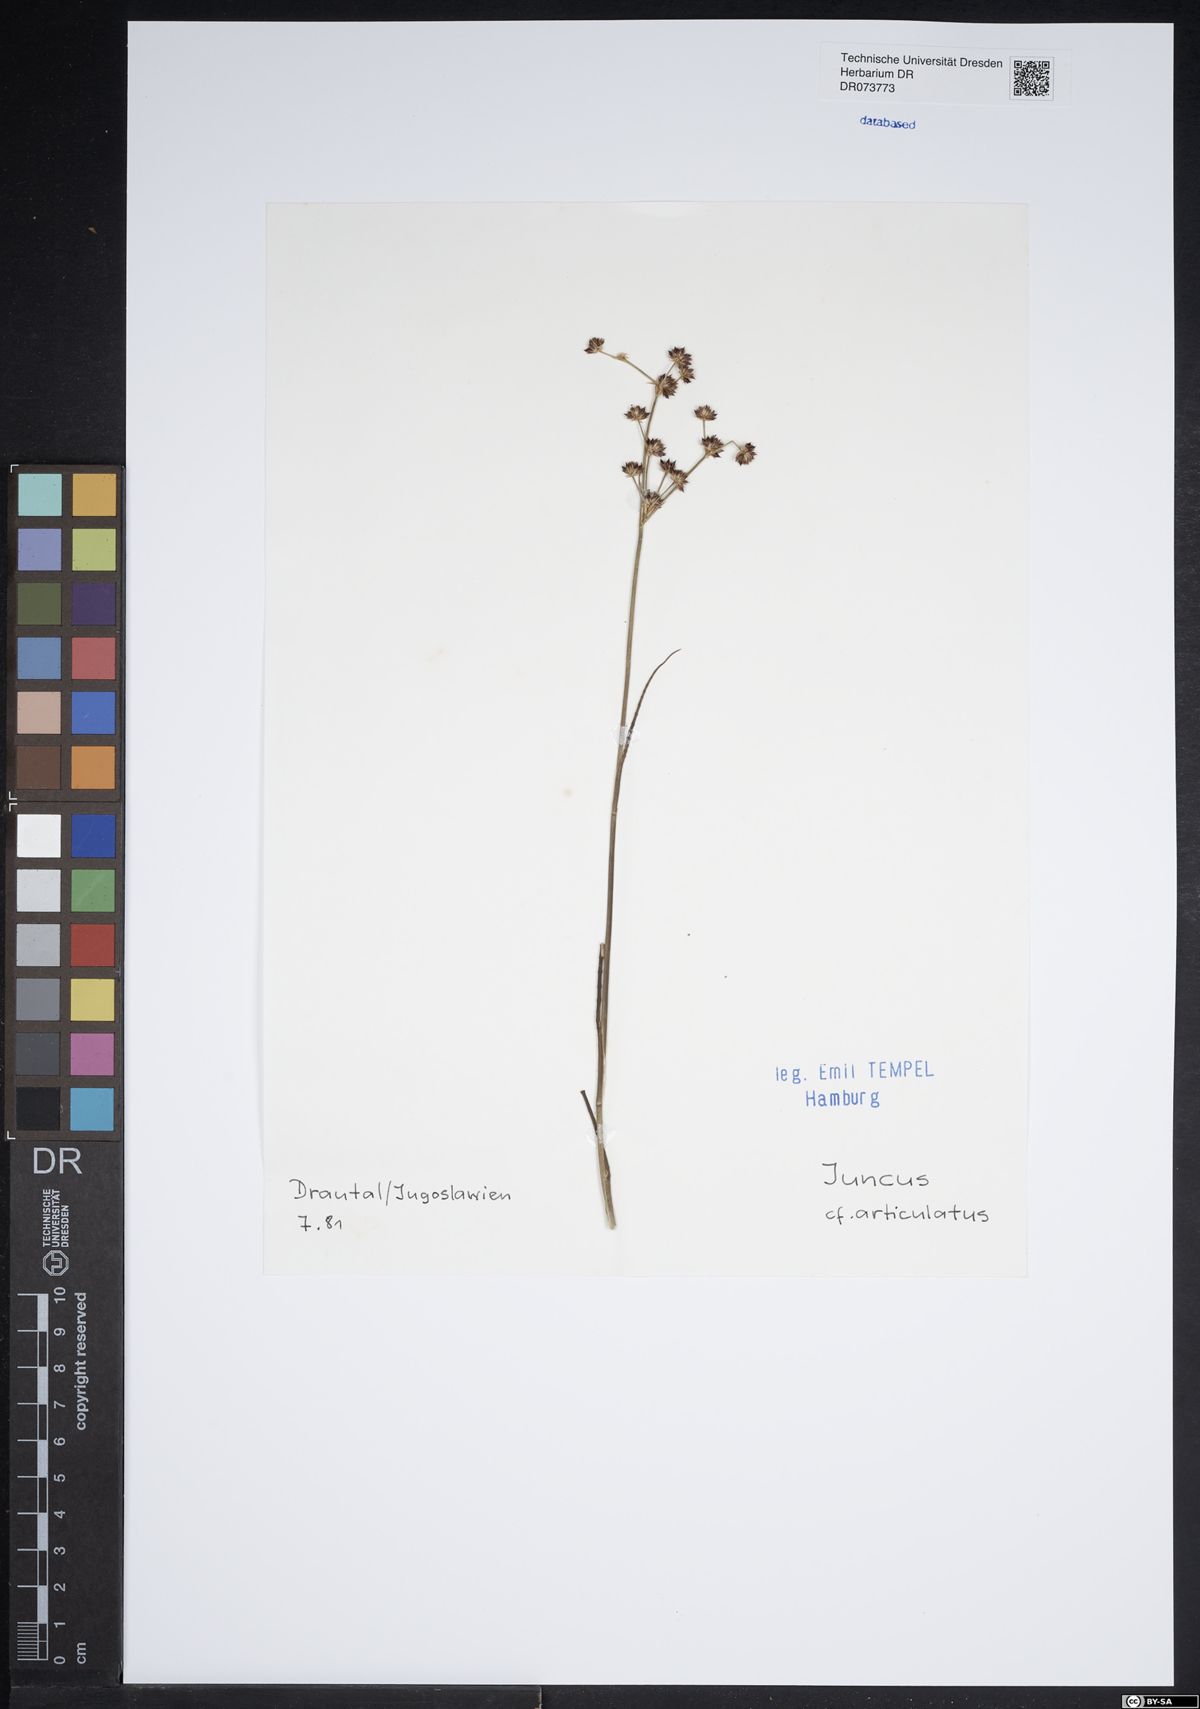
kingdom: Plantae
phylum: Tracheophyta
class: Liliopsida
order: Poales
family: Juncaceae
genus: Juncus
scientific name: Juncus articulatus
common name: Jointed rush
